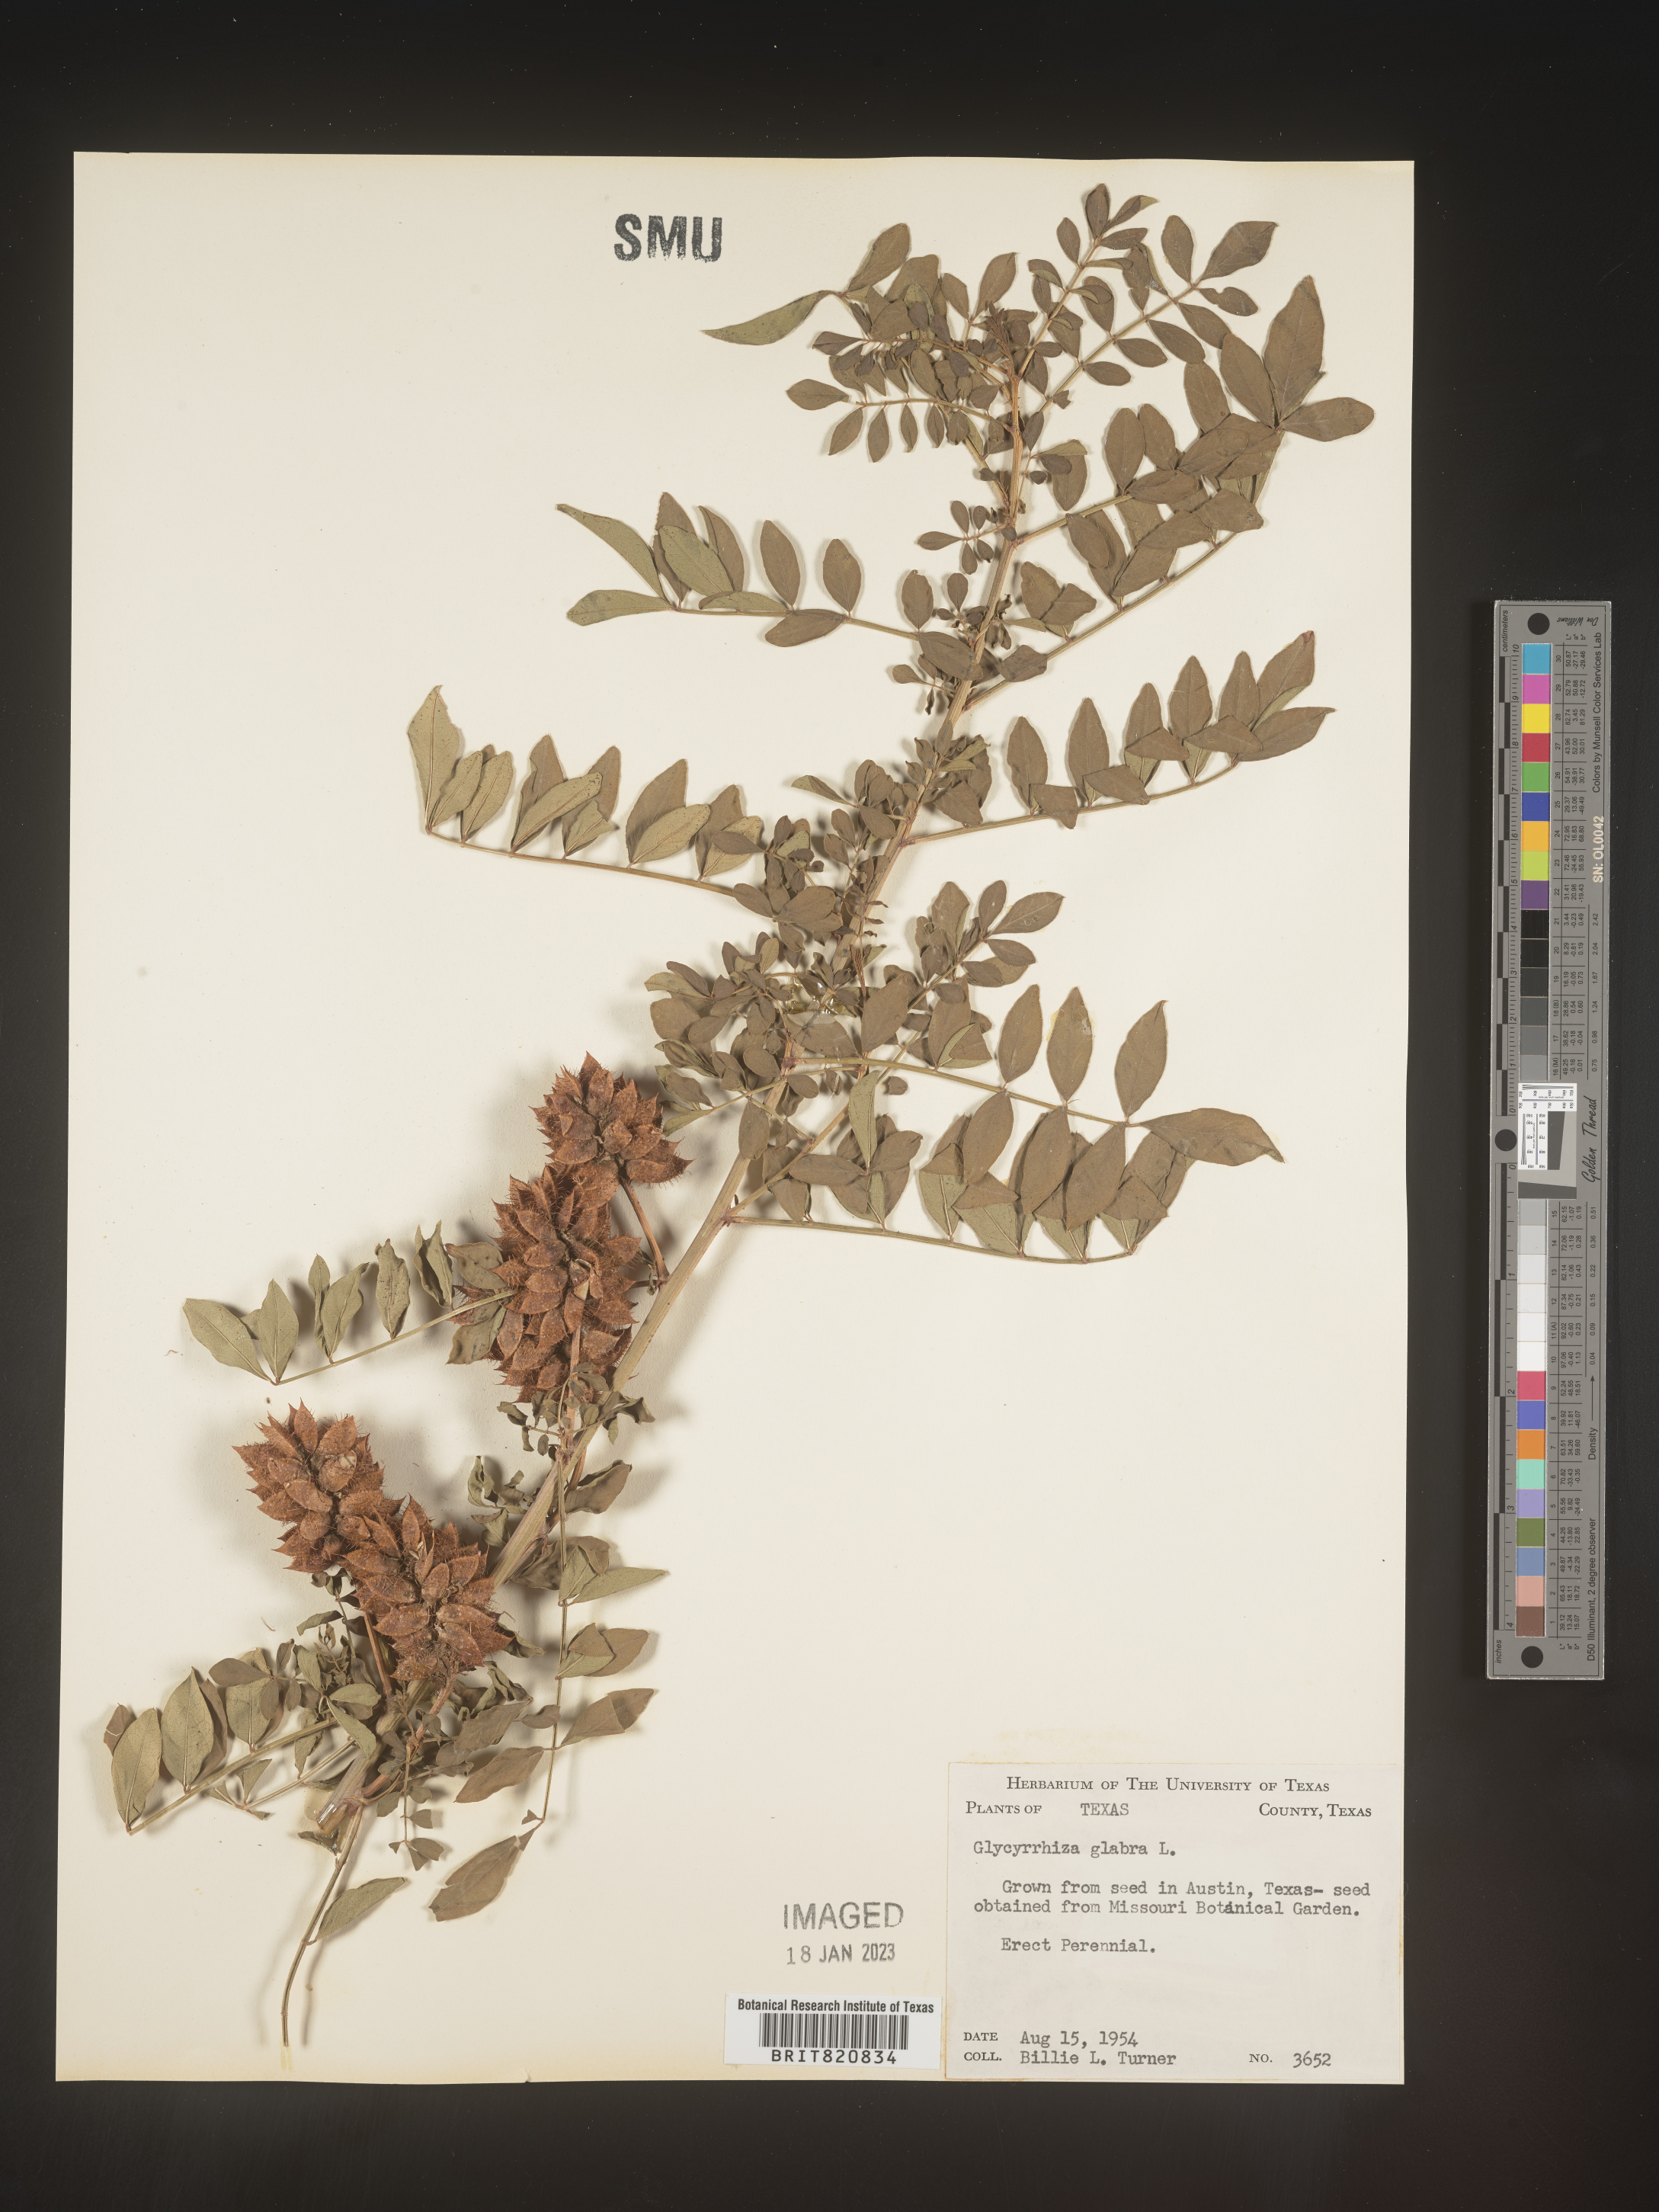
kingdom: Plantae
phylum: Tracheophyta
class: Magnoliopsida
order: Fabales
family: Fabaceae
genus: Glycyrrhiza
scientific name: Glycyrrhiza
